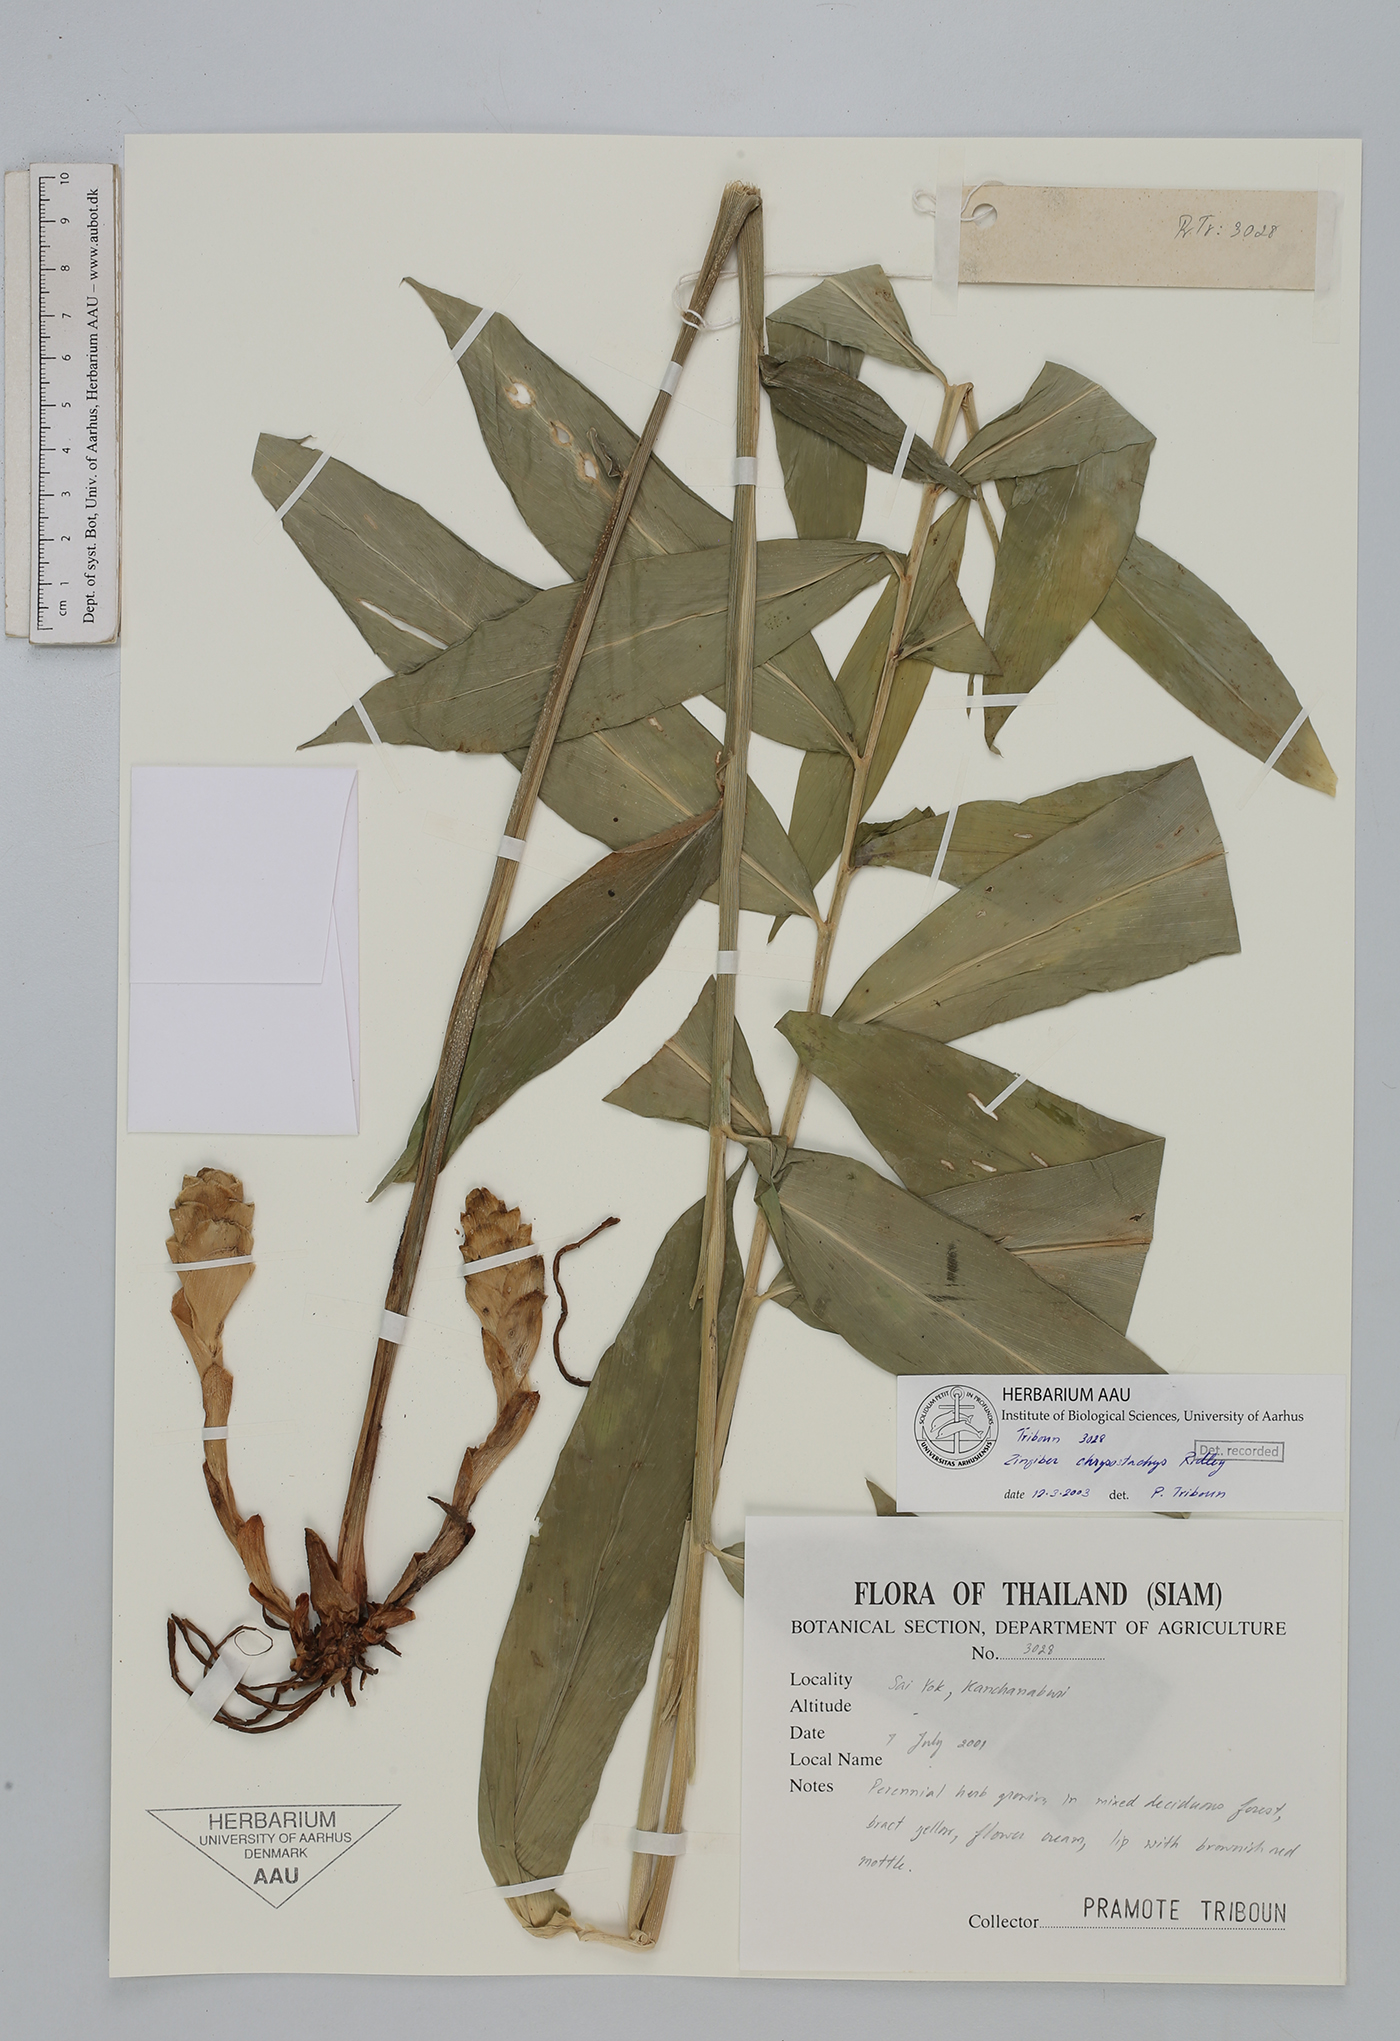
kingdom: Plantae
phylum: Tracheophyta
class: Liliopsida
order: Zingiberales
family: Zingiberaceae
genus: Zingiber
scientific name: Zingiber chrysostachys
